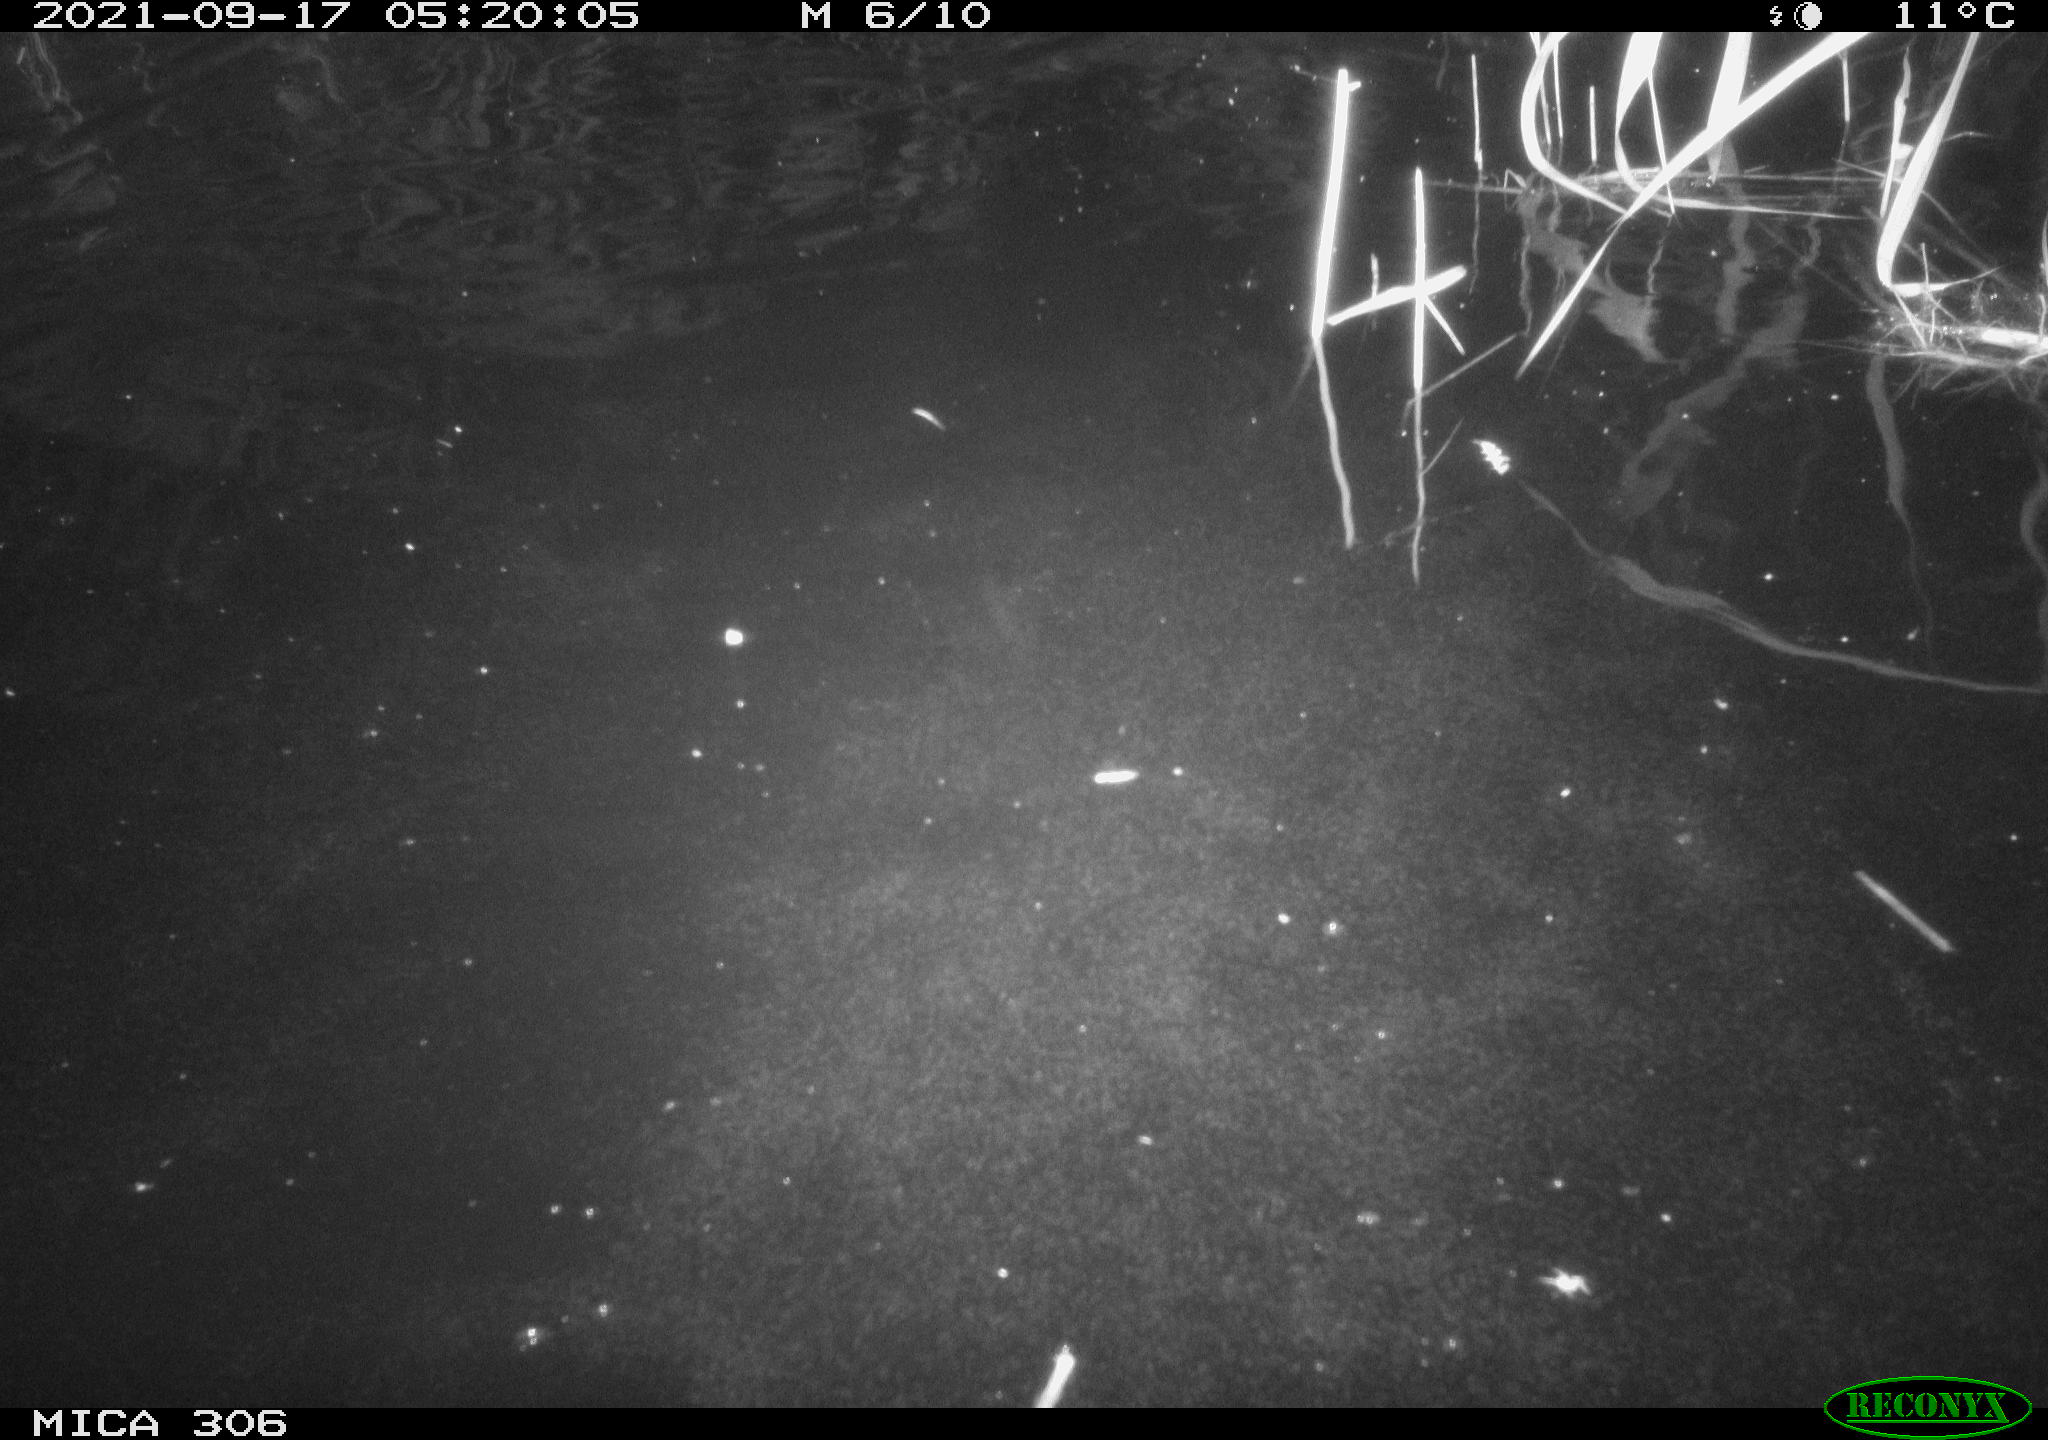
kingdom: Animalia
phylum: Chordata
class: Mammalia
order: Rodentia
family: Cricetidae
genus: Ondatra
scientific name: Ondatra zibethicus
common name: Muskrat
